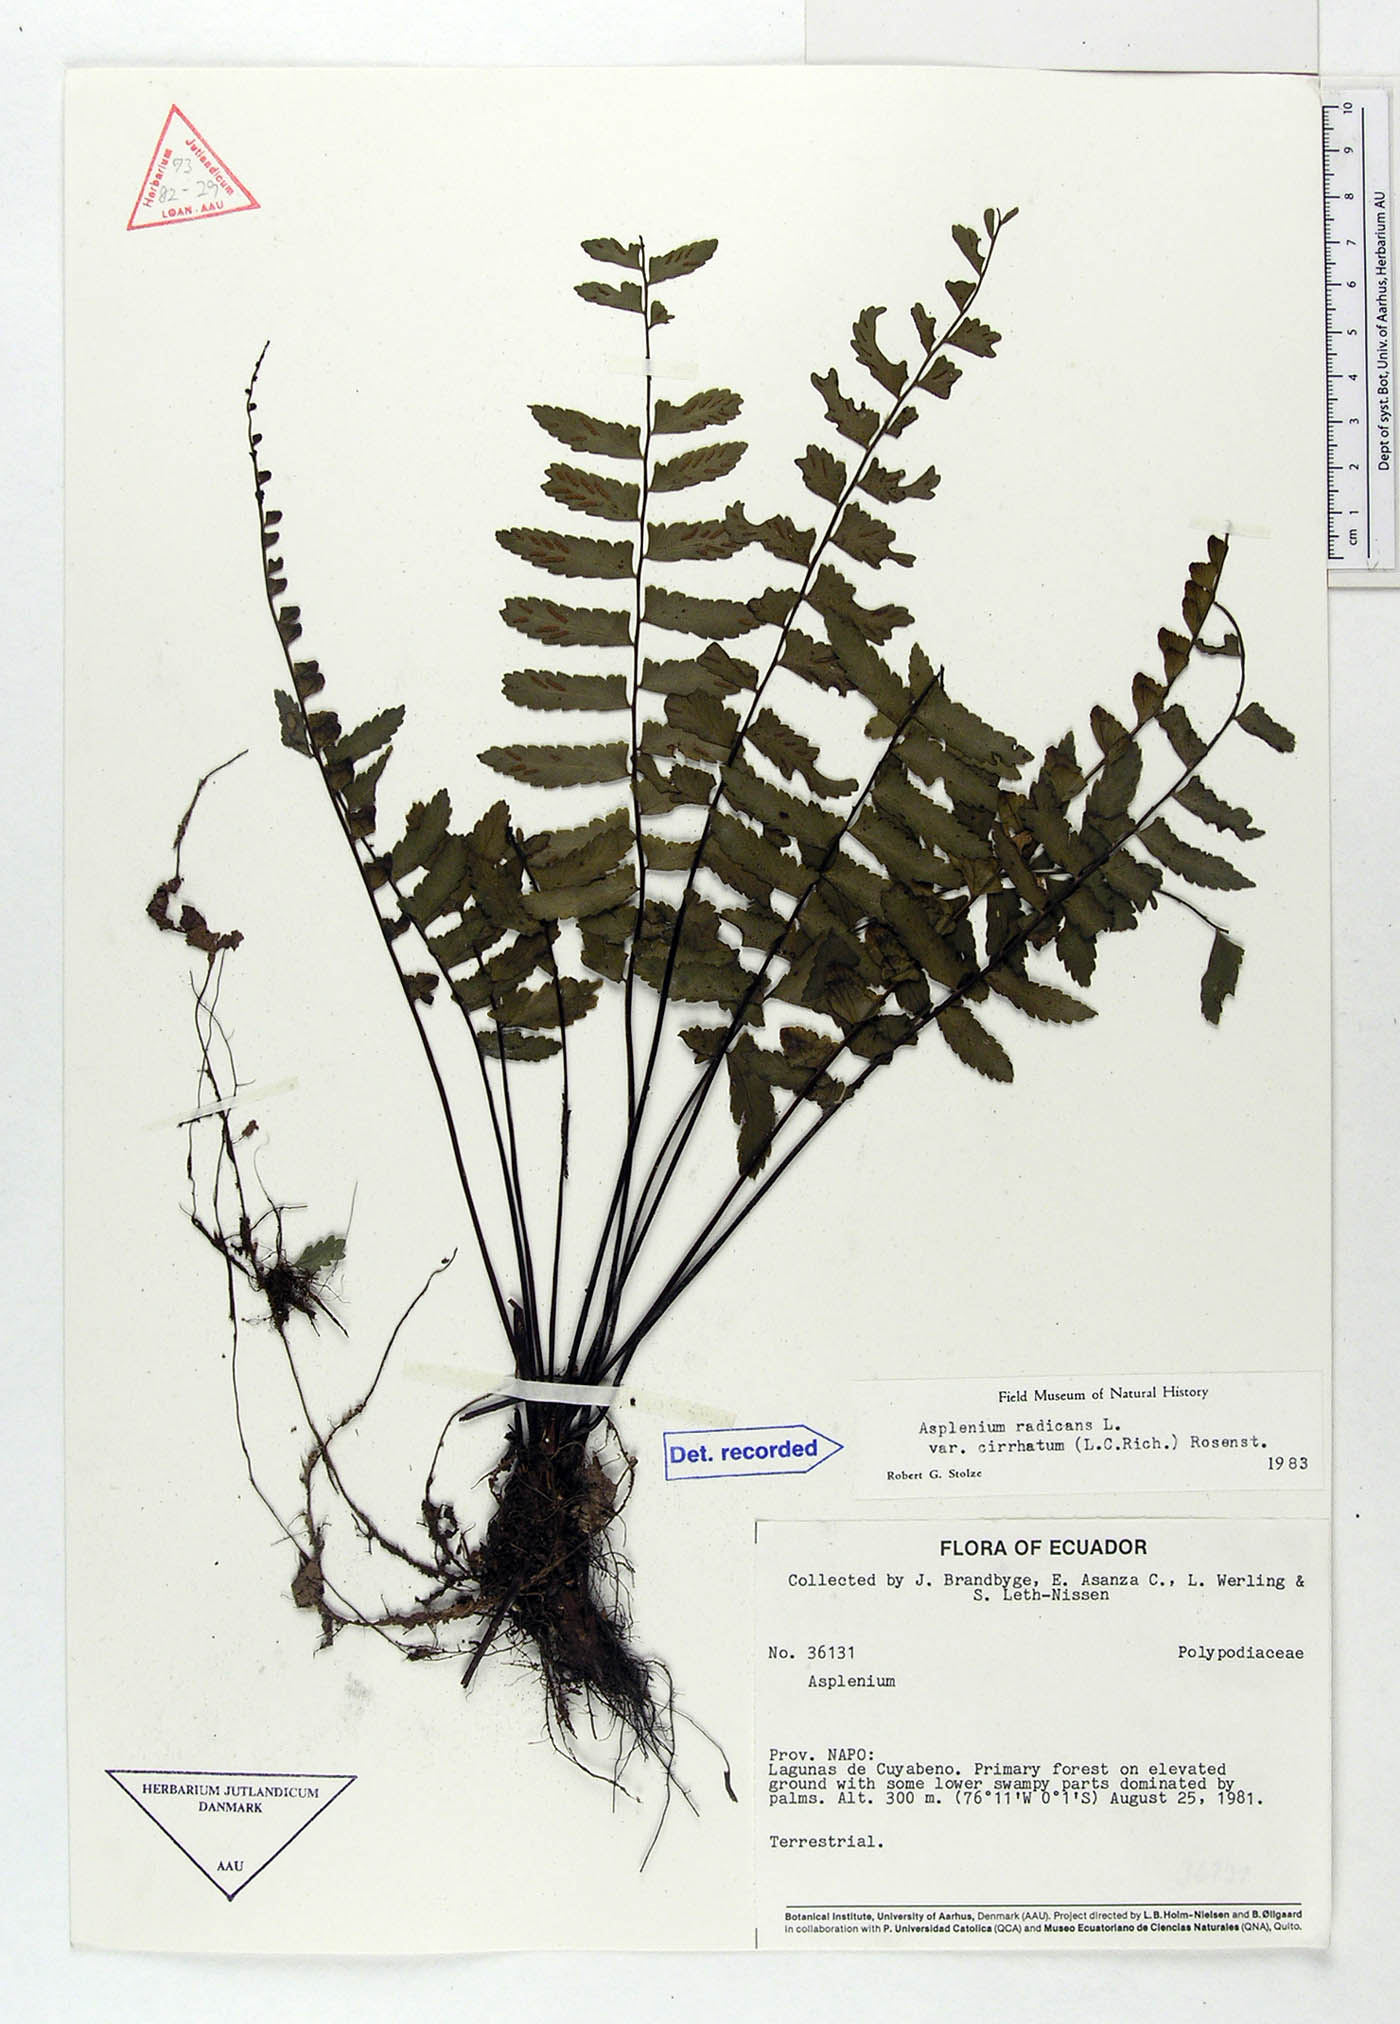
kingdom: Plantae
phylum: Tracheophyta
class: Polypodiopsida
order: Polypodiales
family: Aspleniaceae
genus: Asplenium
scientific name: Asplenium cirrhatum
